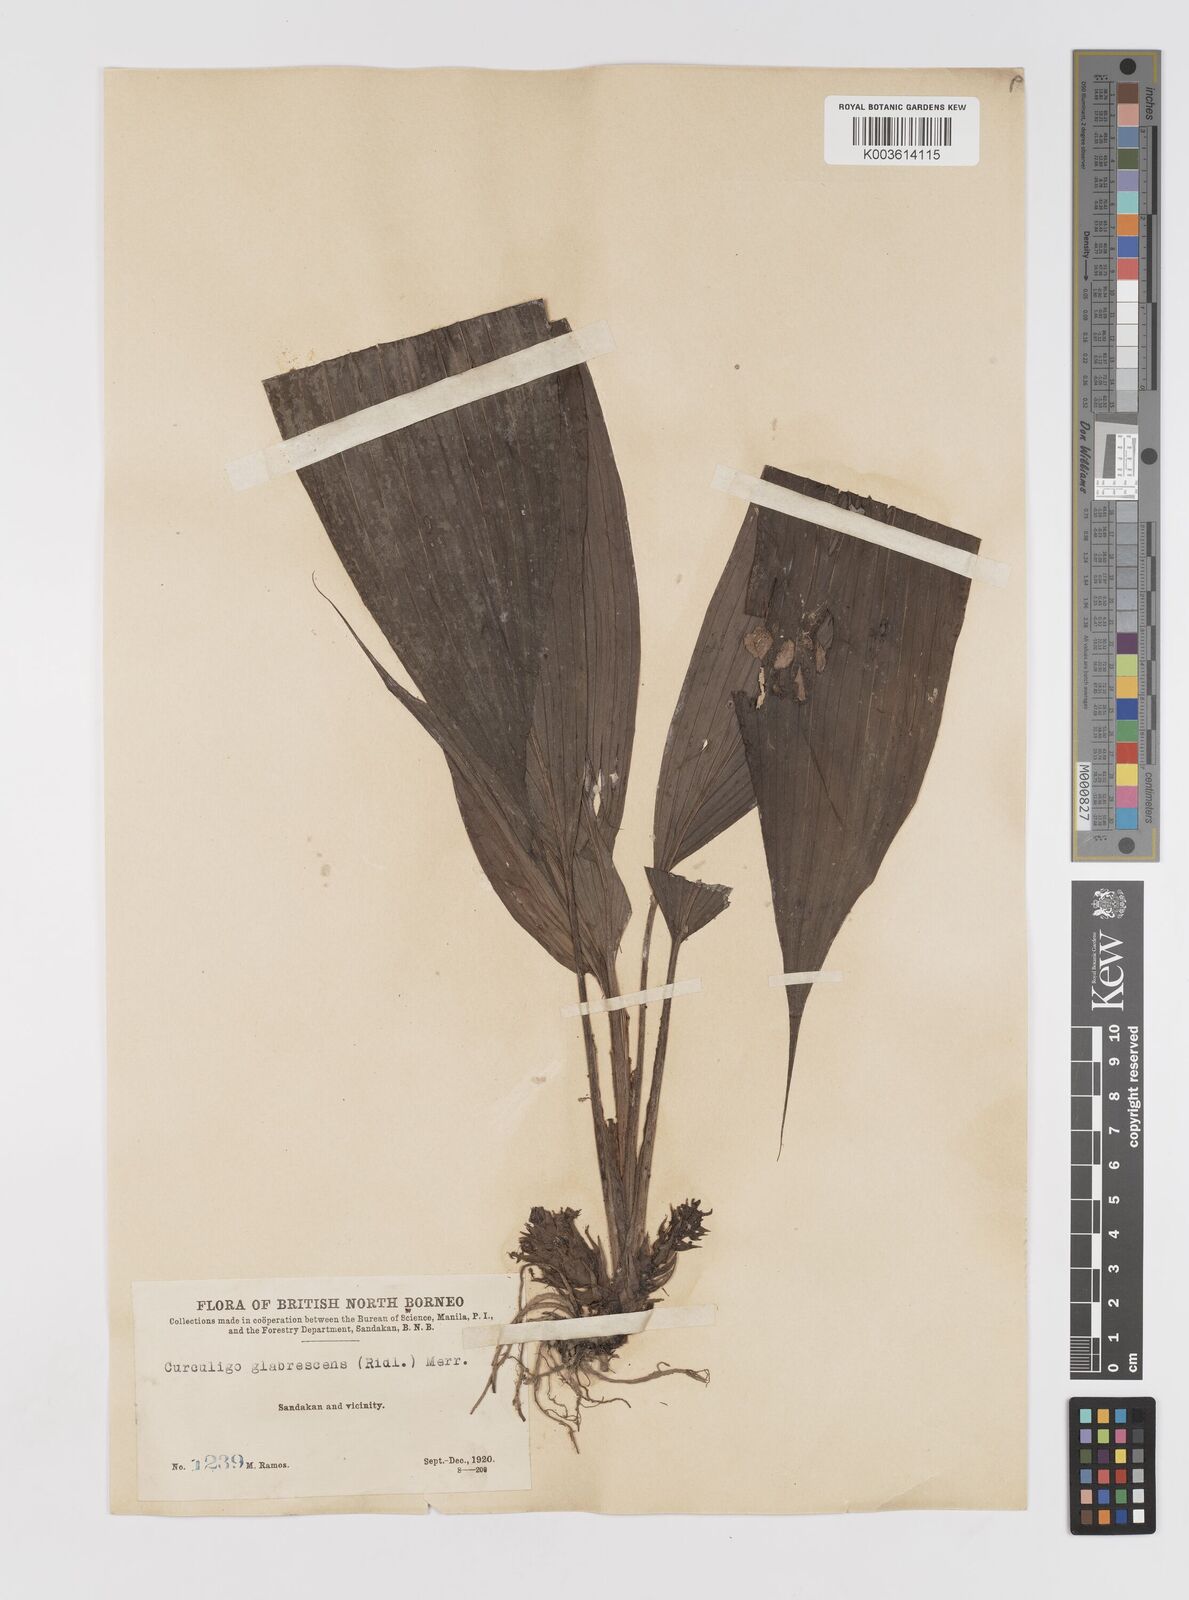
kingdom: Plantae
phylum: Tracheophyta
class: Liliopsida
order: Asparagales
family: Hypoxidaceae
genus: Curculigo
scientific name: Curculigo latifolia
